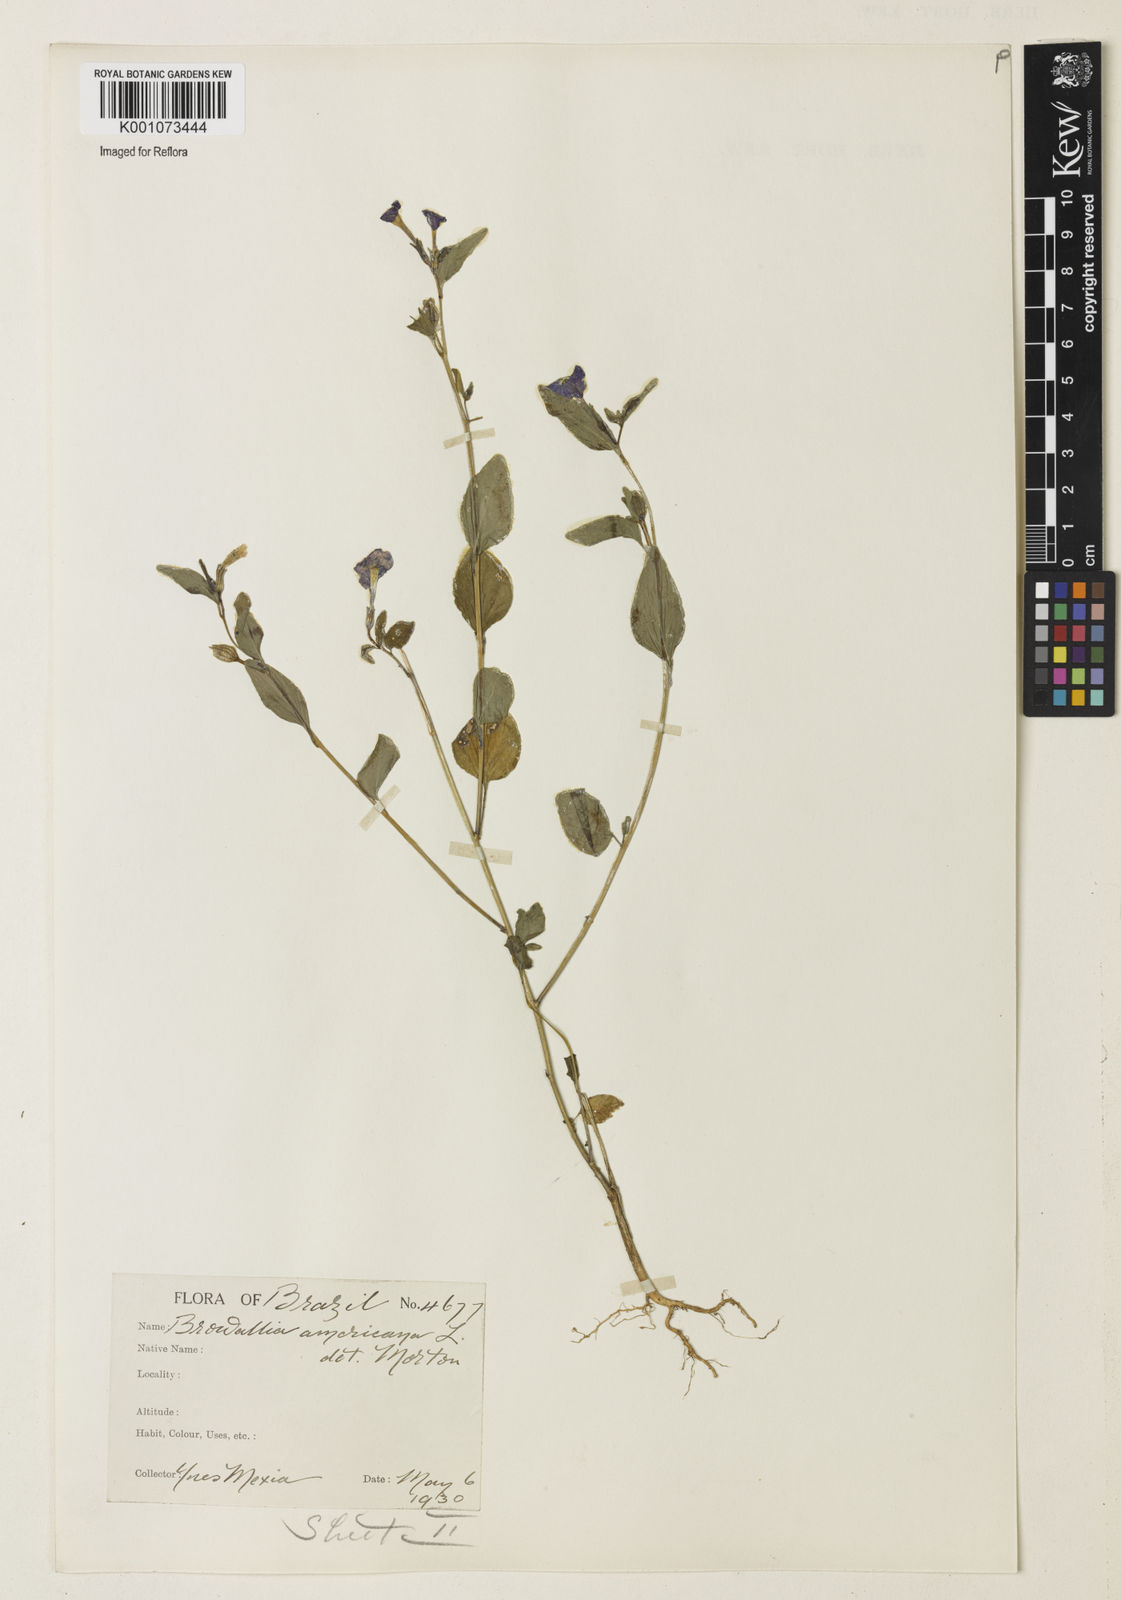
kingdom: Plantae
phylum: Tracheophyta
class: Magnoliopsida
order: Solanales
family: Solanaceae
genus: Browallia
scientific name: Browallia americana
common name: Jamaican forget-me-not
